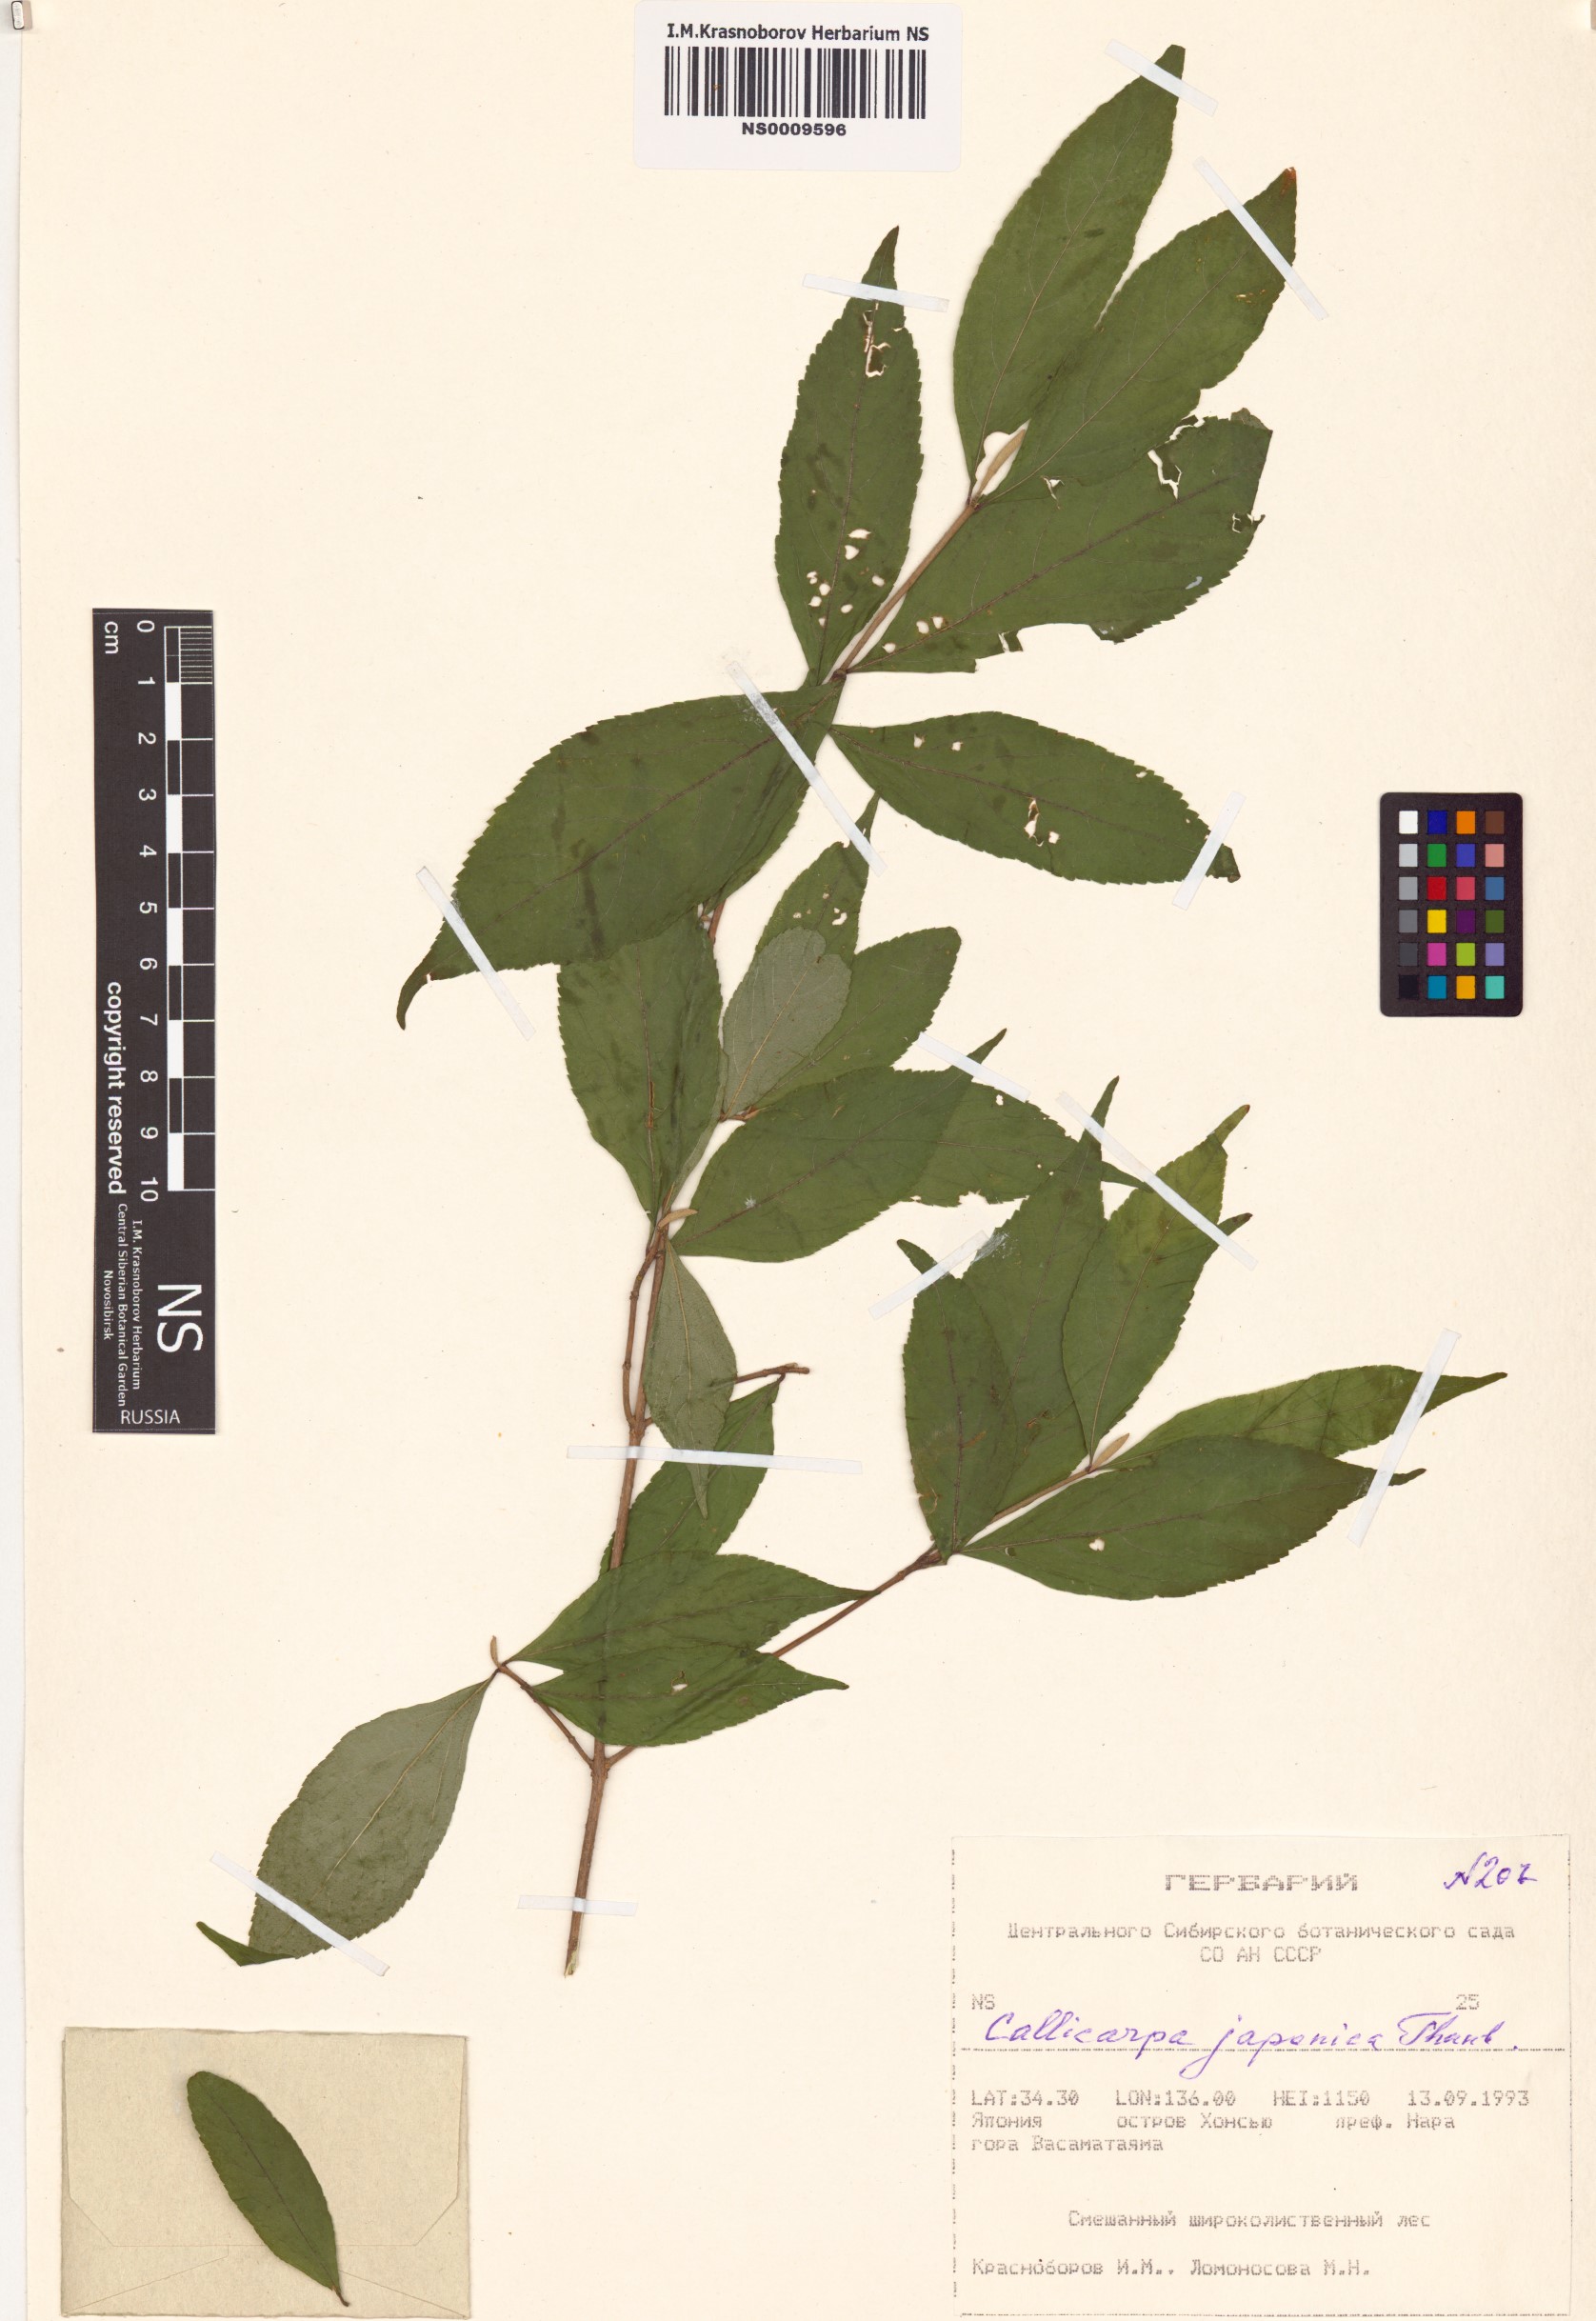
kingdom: Plantae
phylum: Tracheophyta
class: Magnoliopsida
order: Lamiales
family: Lamiaceae
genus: Callicarpa
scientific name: Callicarpa japonica
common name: Japanese beauty-berry
